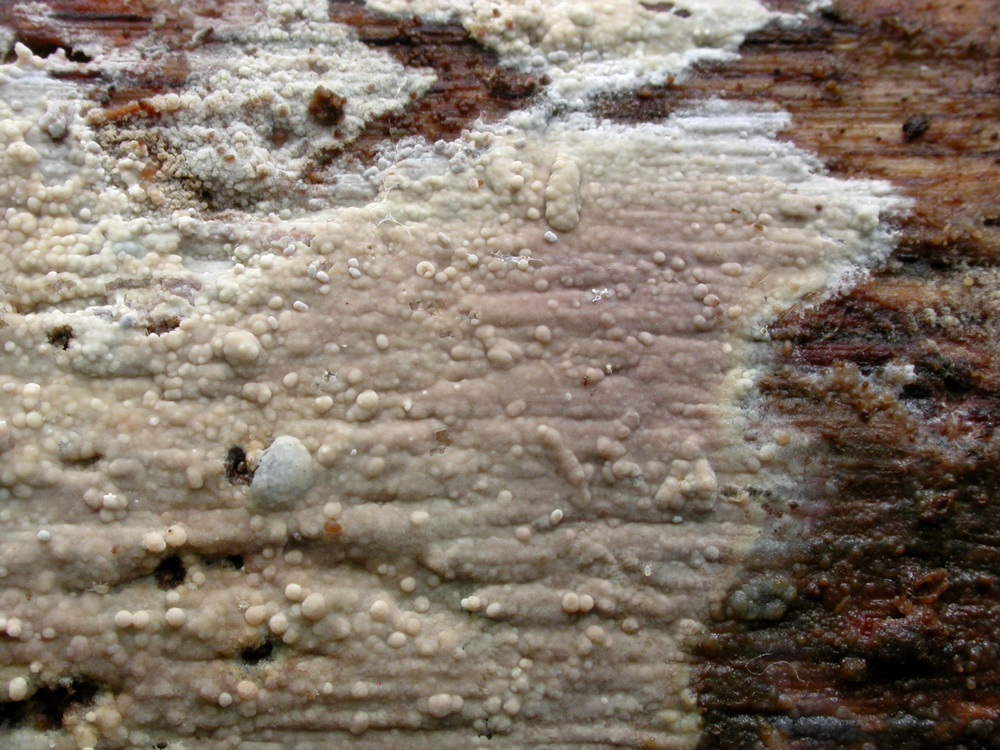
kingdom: Fungi
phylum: Basidiomycota
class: Agaricomycetes
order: Polyporales
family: Hyphodermataceae
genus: Hyphoderma
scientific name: Hyphoderma medioburiense
